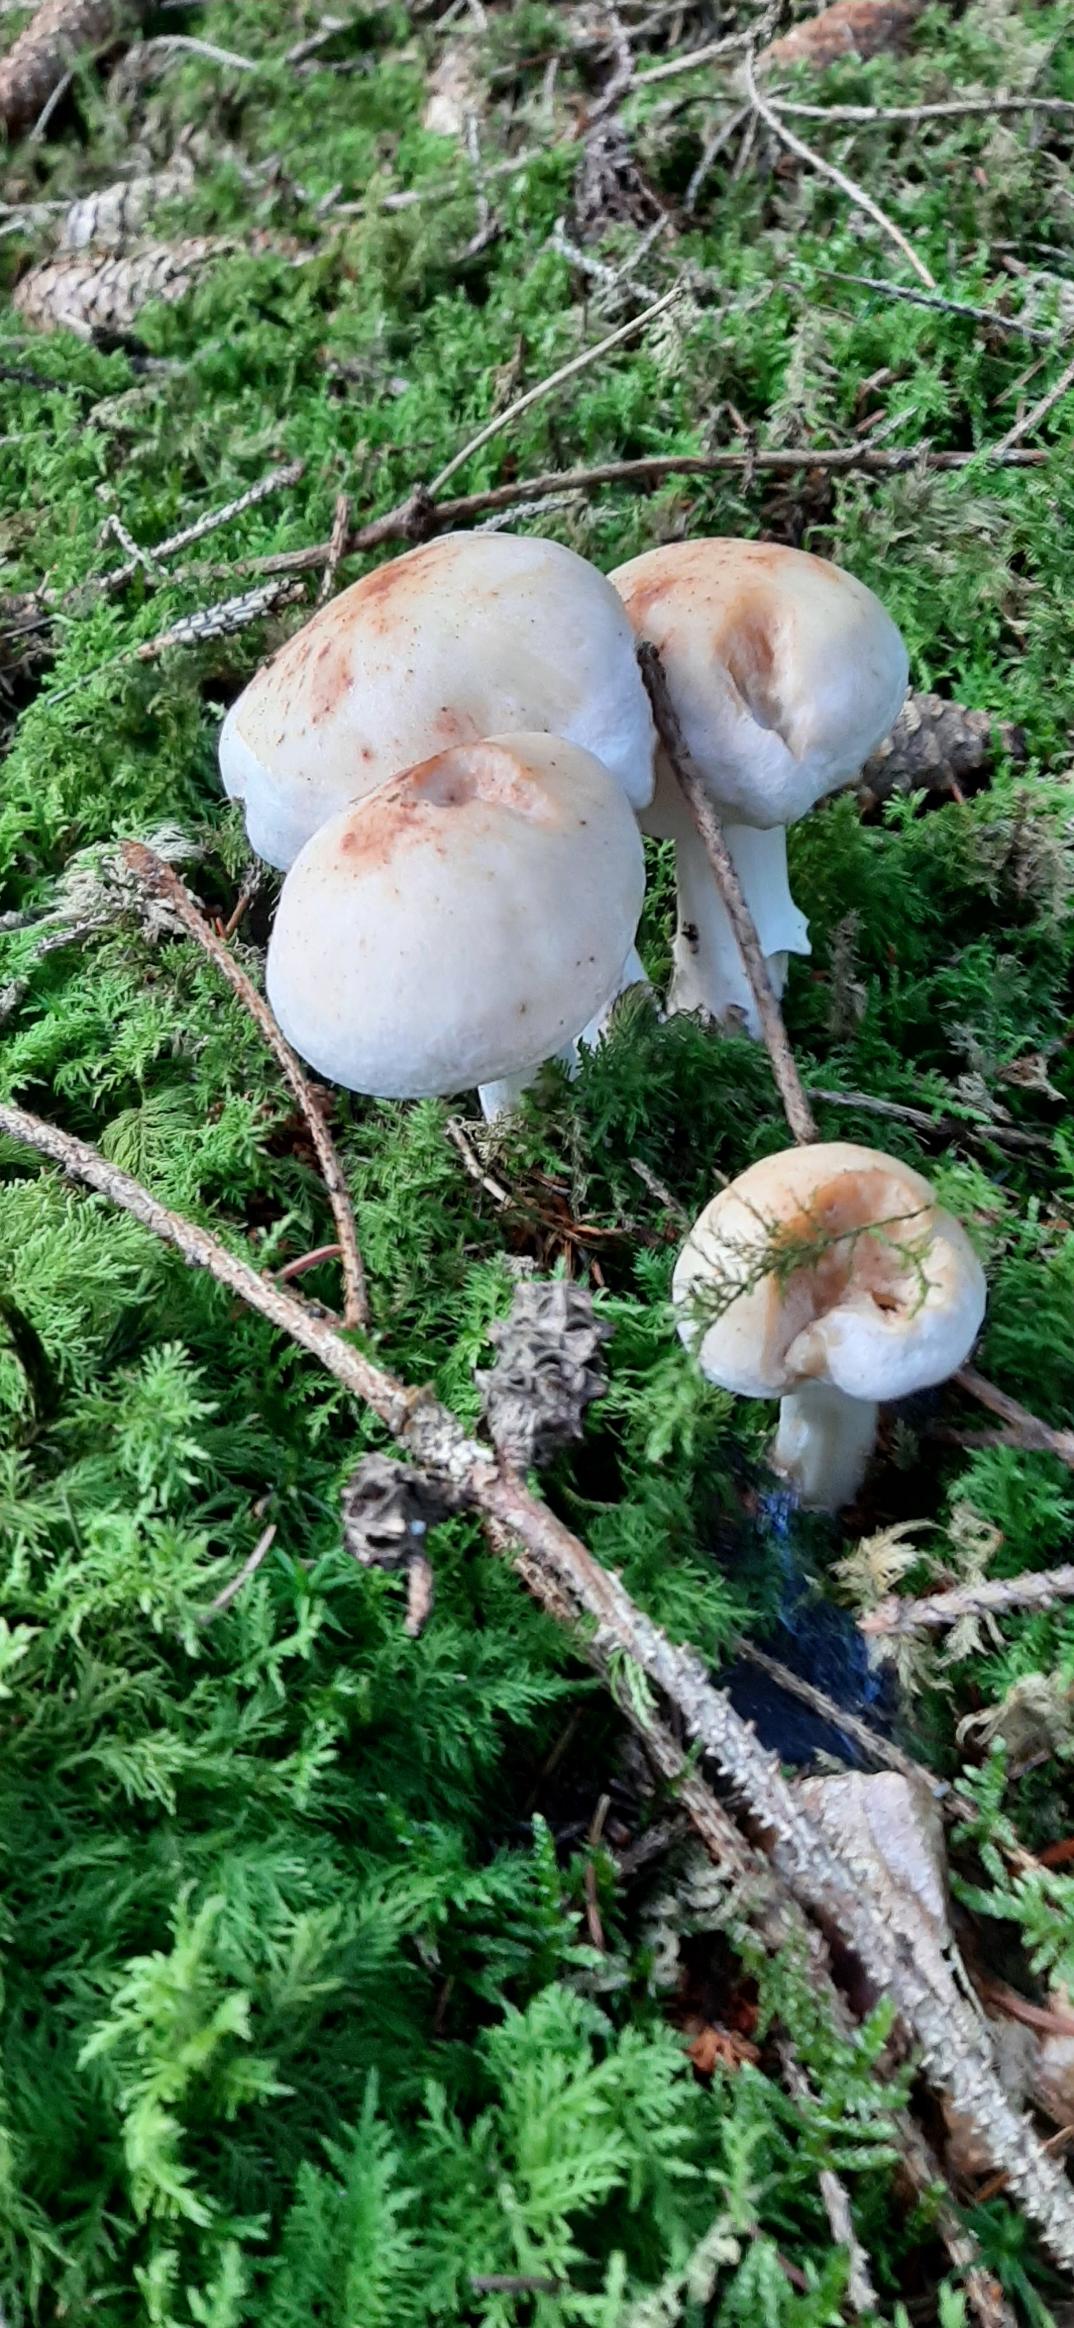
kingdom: Fungi
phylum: Basidiomycota
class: Agaricomycetes
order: Agaricales
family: Omphalotaceae
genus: Rhodocollybia
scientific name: Rhodocollybia maculata
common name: Plettet fladhat
